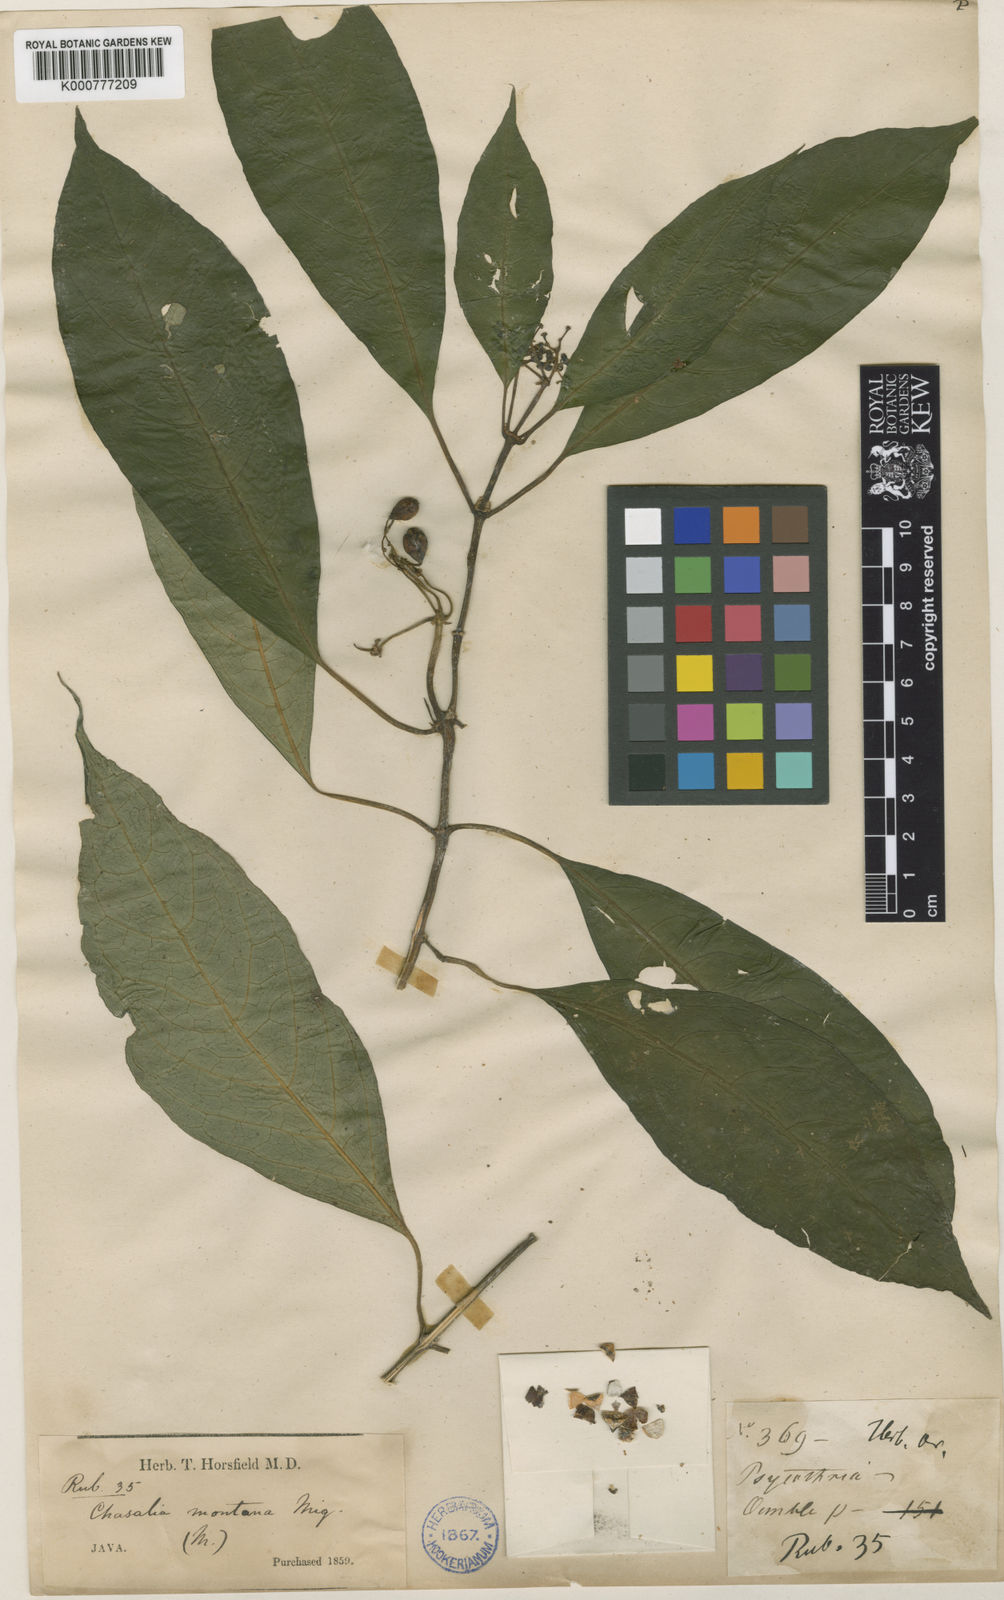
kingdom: Plantae
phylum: Tracheophyta
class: Magnoliopsida
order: Gentianales
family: Rubiaceae
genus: Eumachia
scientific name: Eumachia montana
